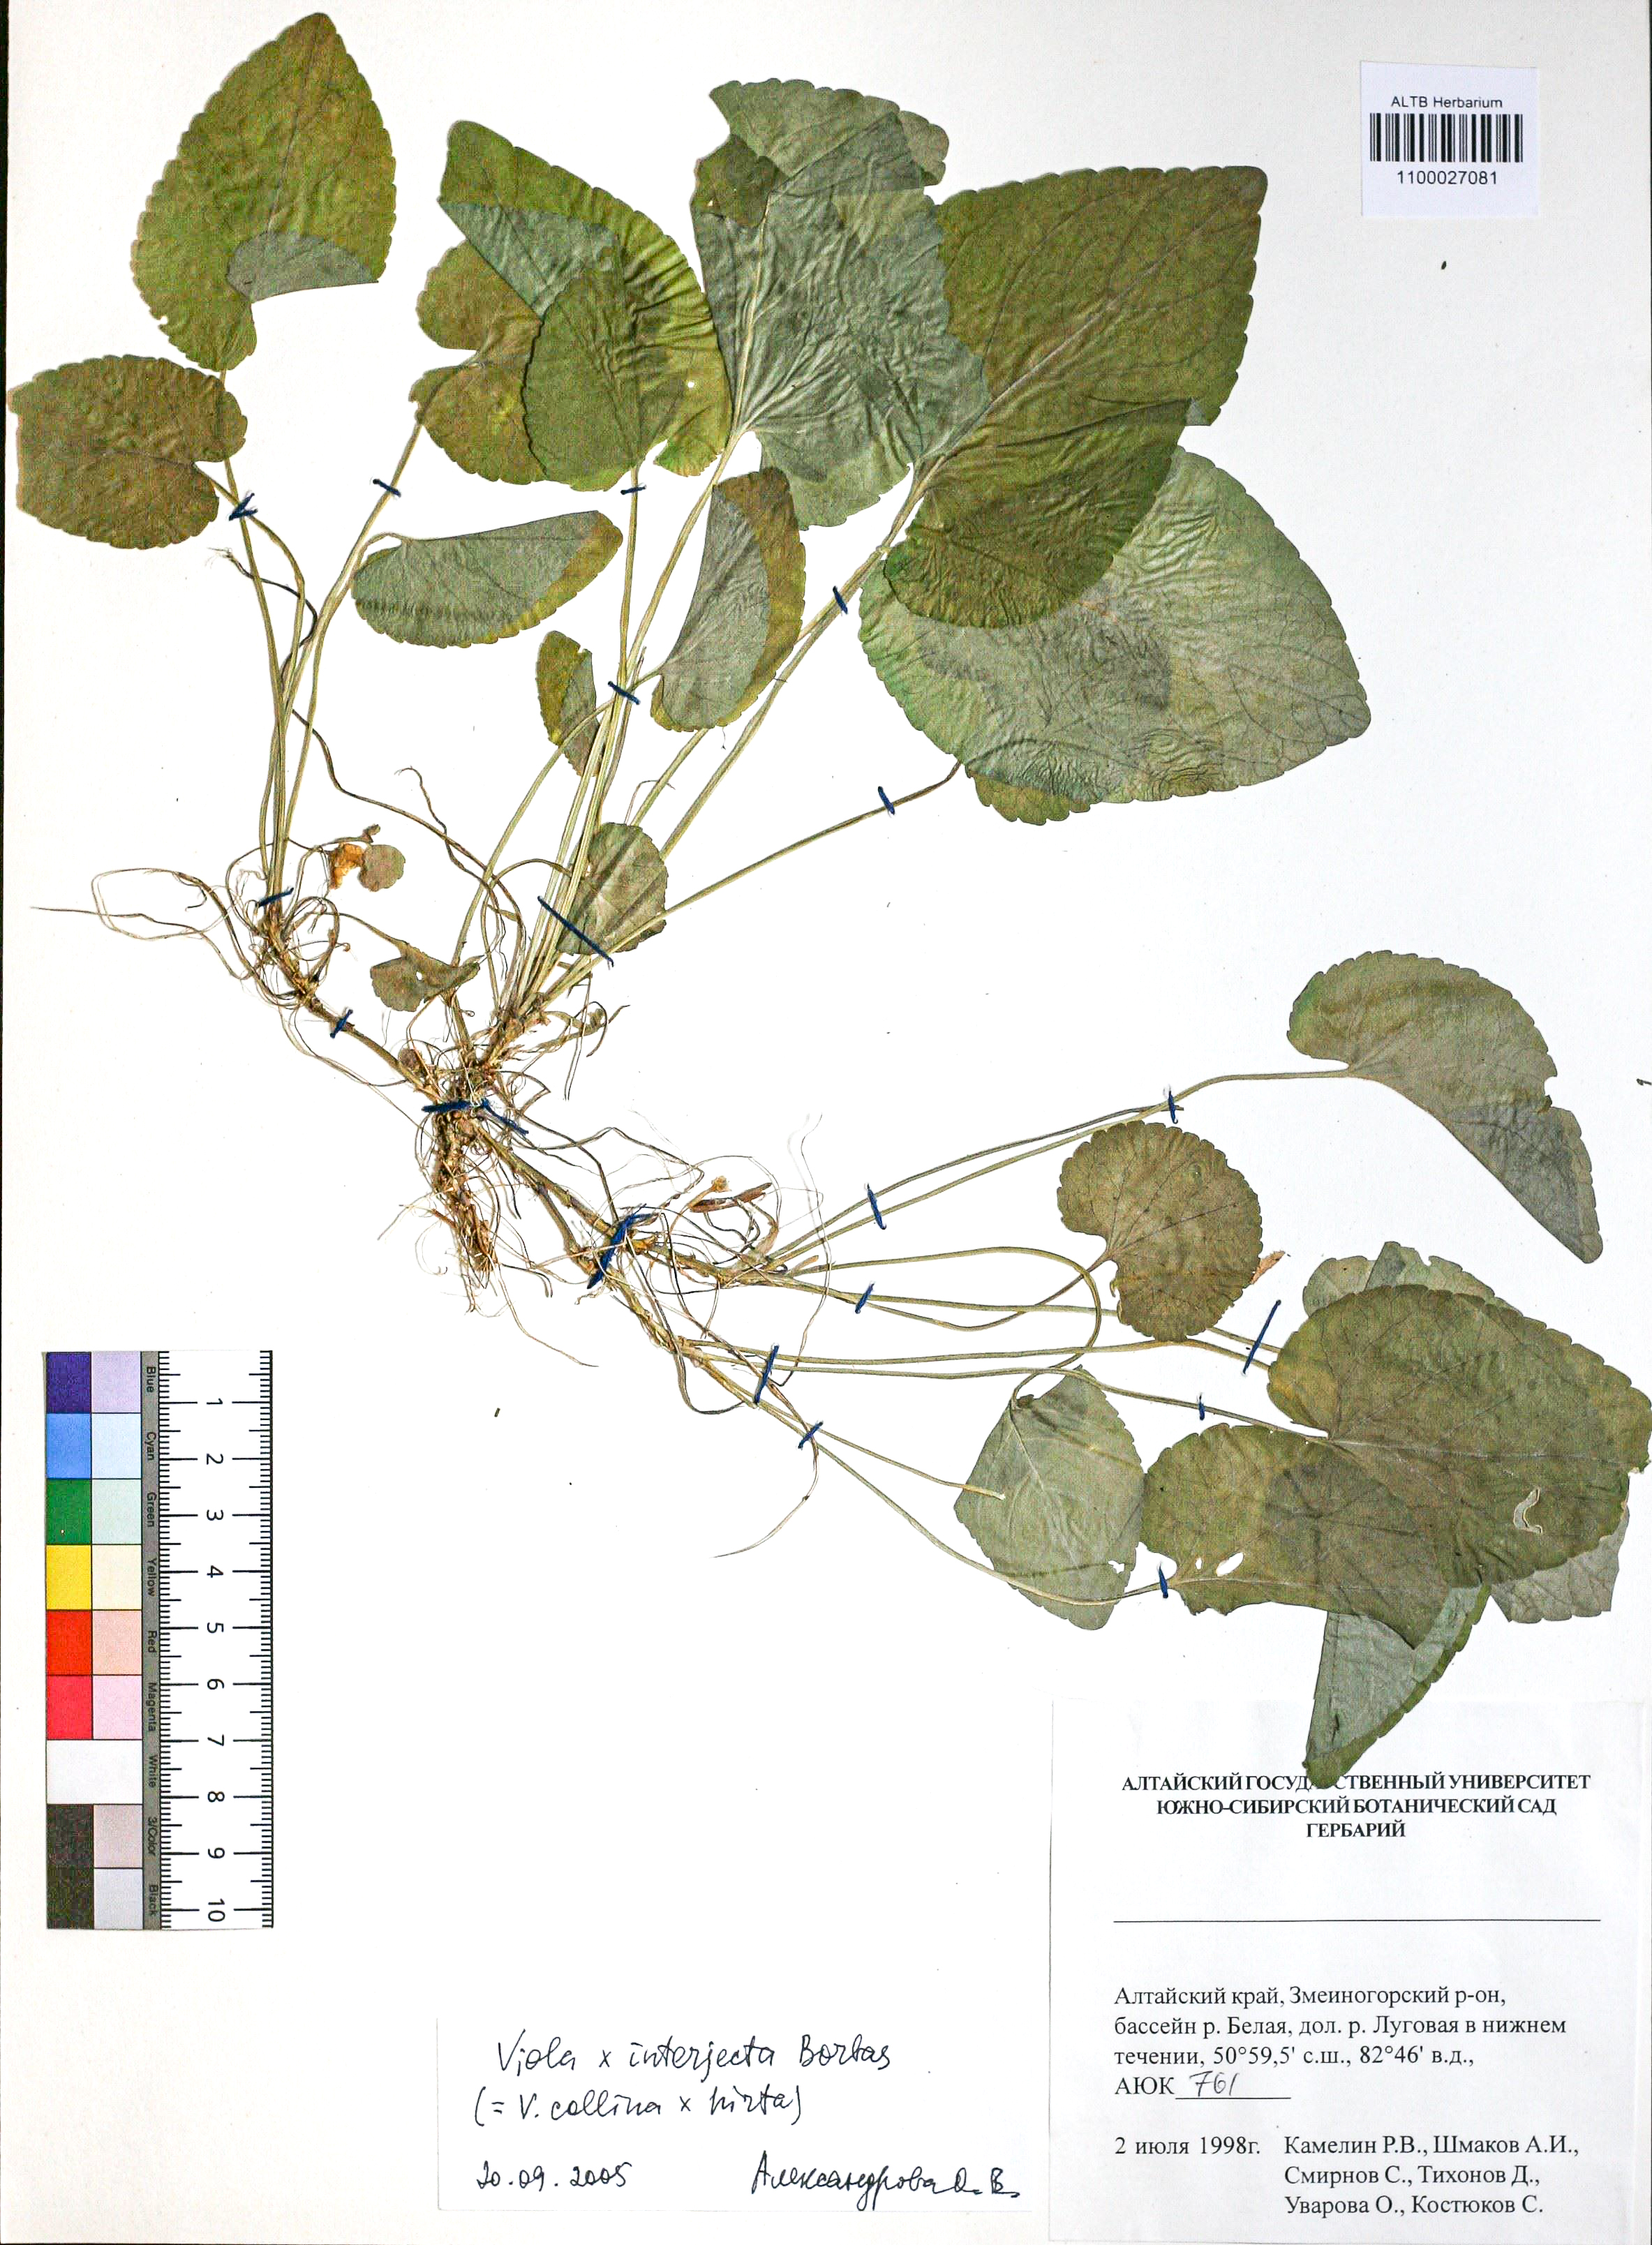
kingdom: Plantae
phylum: Tracheophyta
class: Magnoliopsida
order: Malpighiales
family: Violaceae
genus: Viola
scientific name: Viola interjecta
